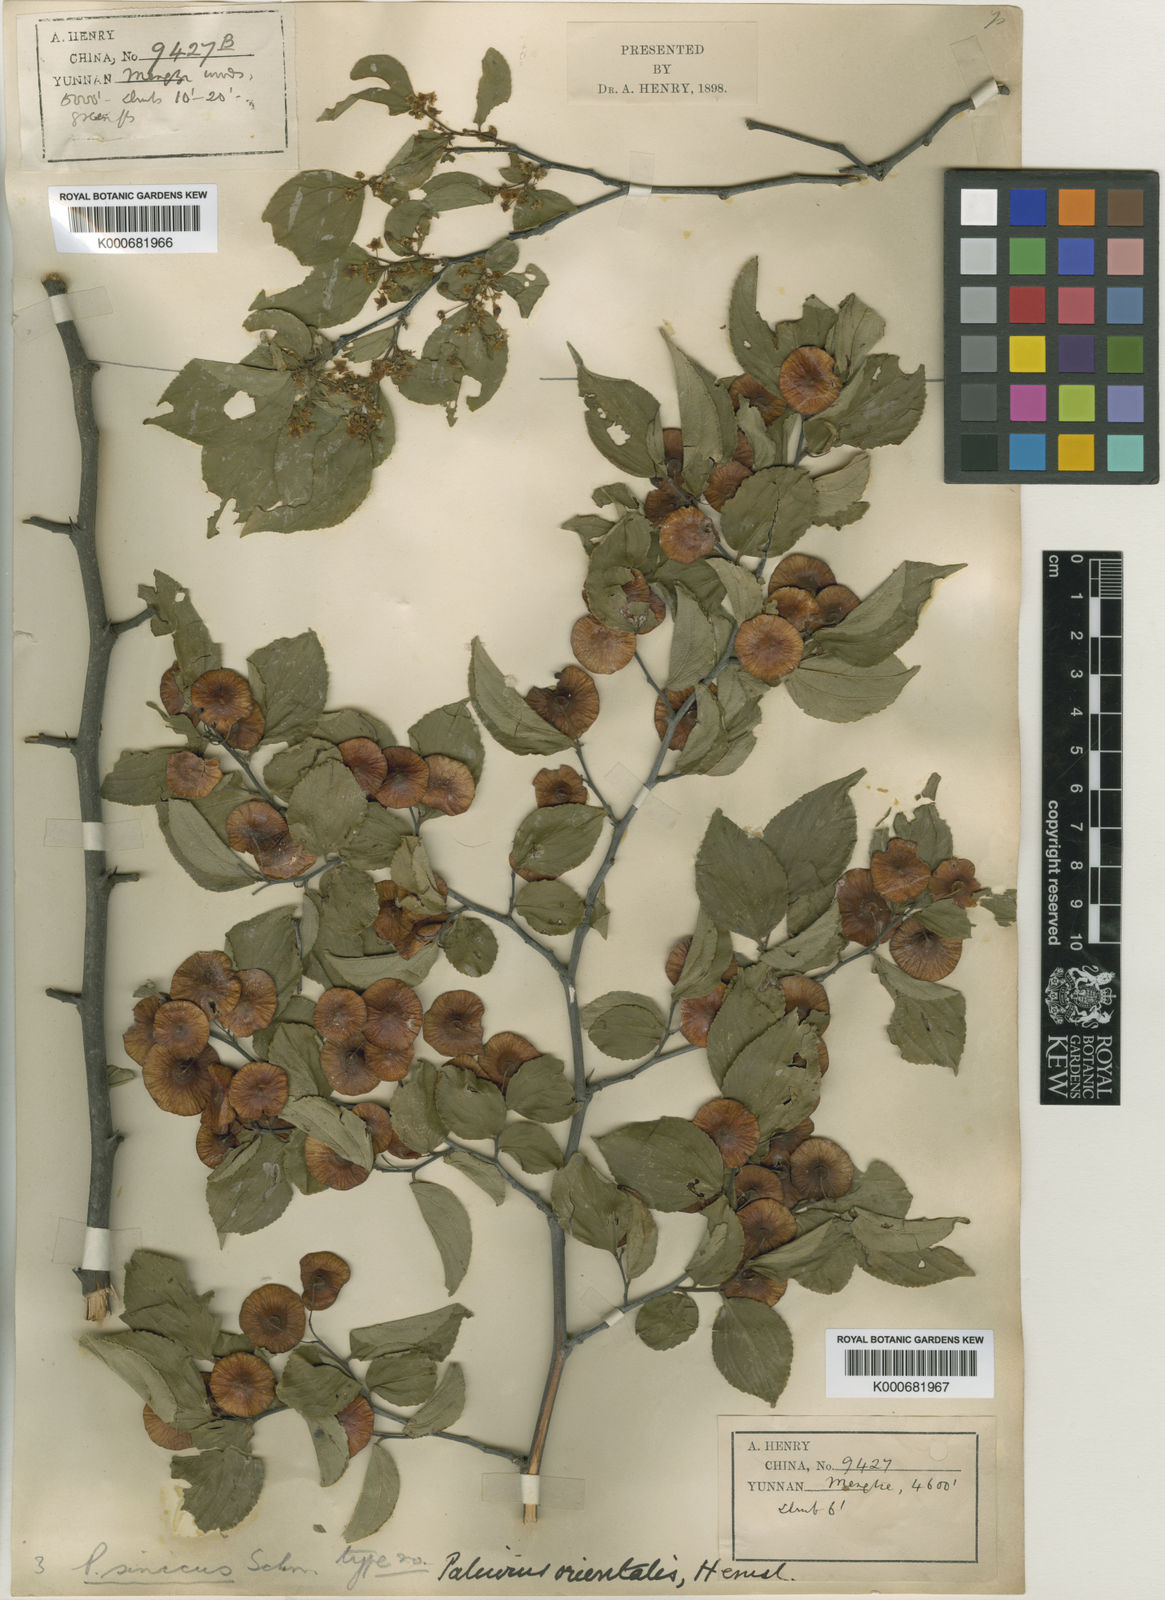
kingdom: Plantae
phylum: Tracheophyta
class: Magnoliopsida
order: Rosales
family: Rhamnaceae
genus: Paliurus
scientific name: Paliurus orientalis
